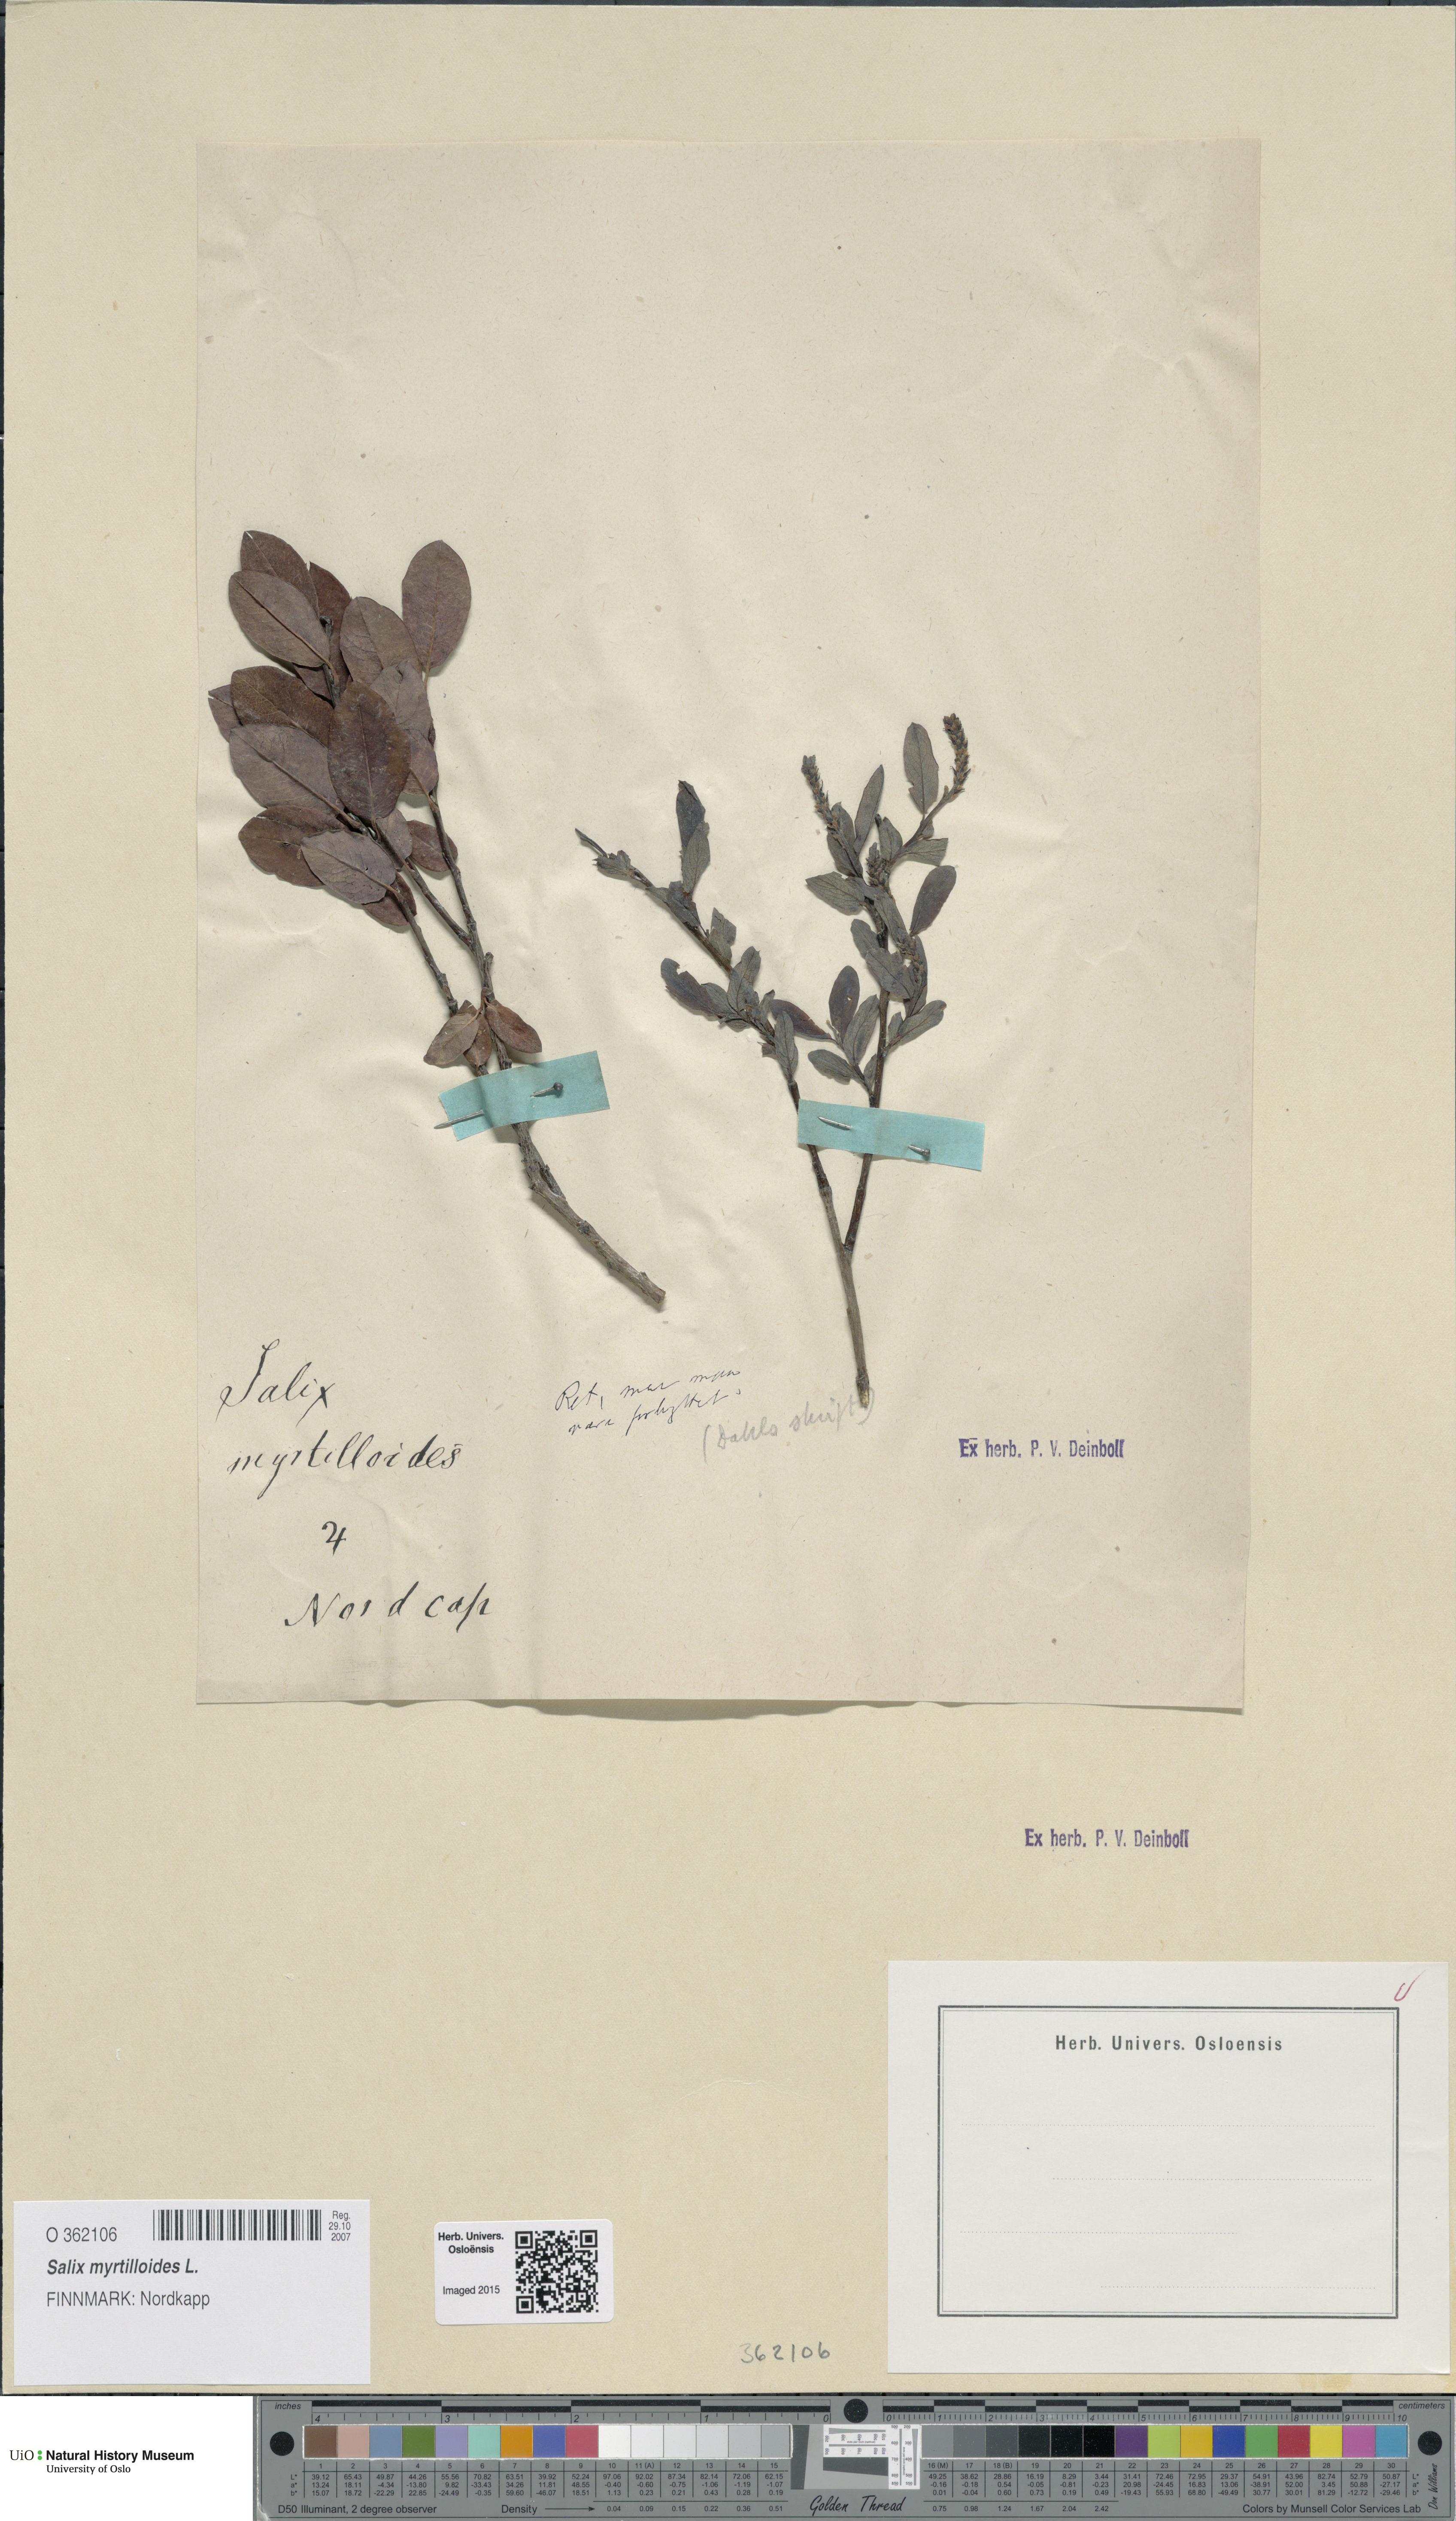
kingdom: Plantae
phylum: Tracheophyta
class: Magnoliopsida
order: Malpighiales
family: Salicaceae
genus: Salix
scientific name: Salix myrtilloides
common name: Myrtle-leaved willow
